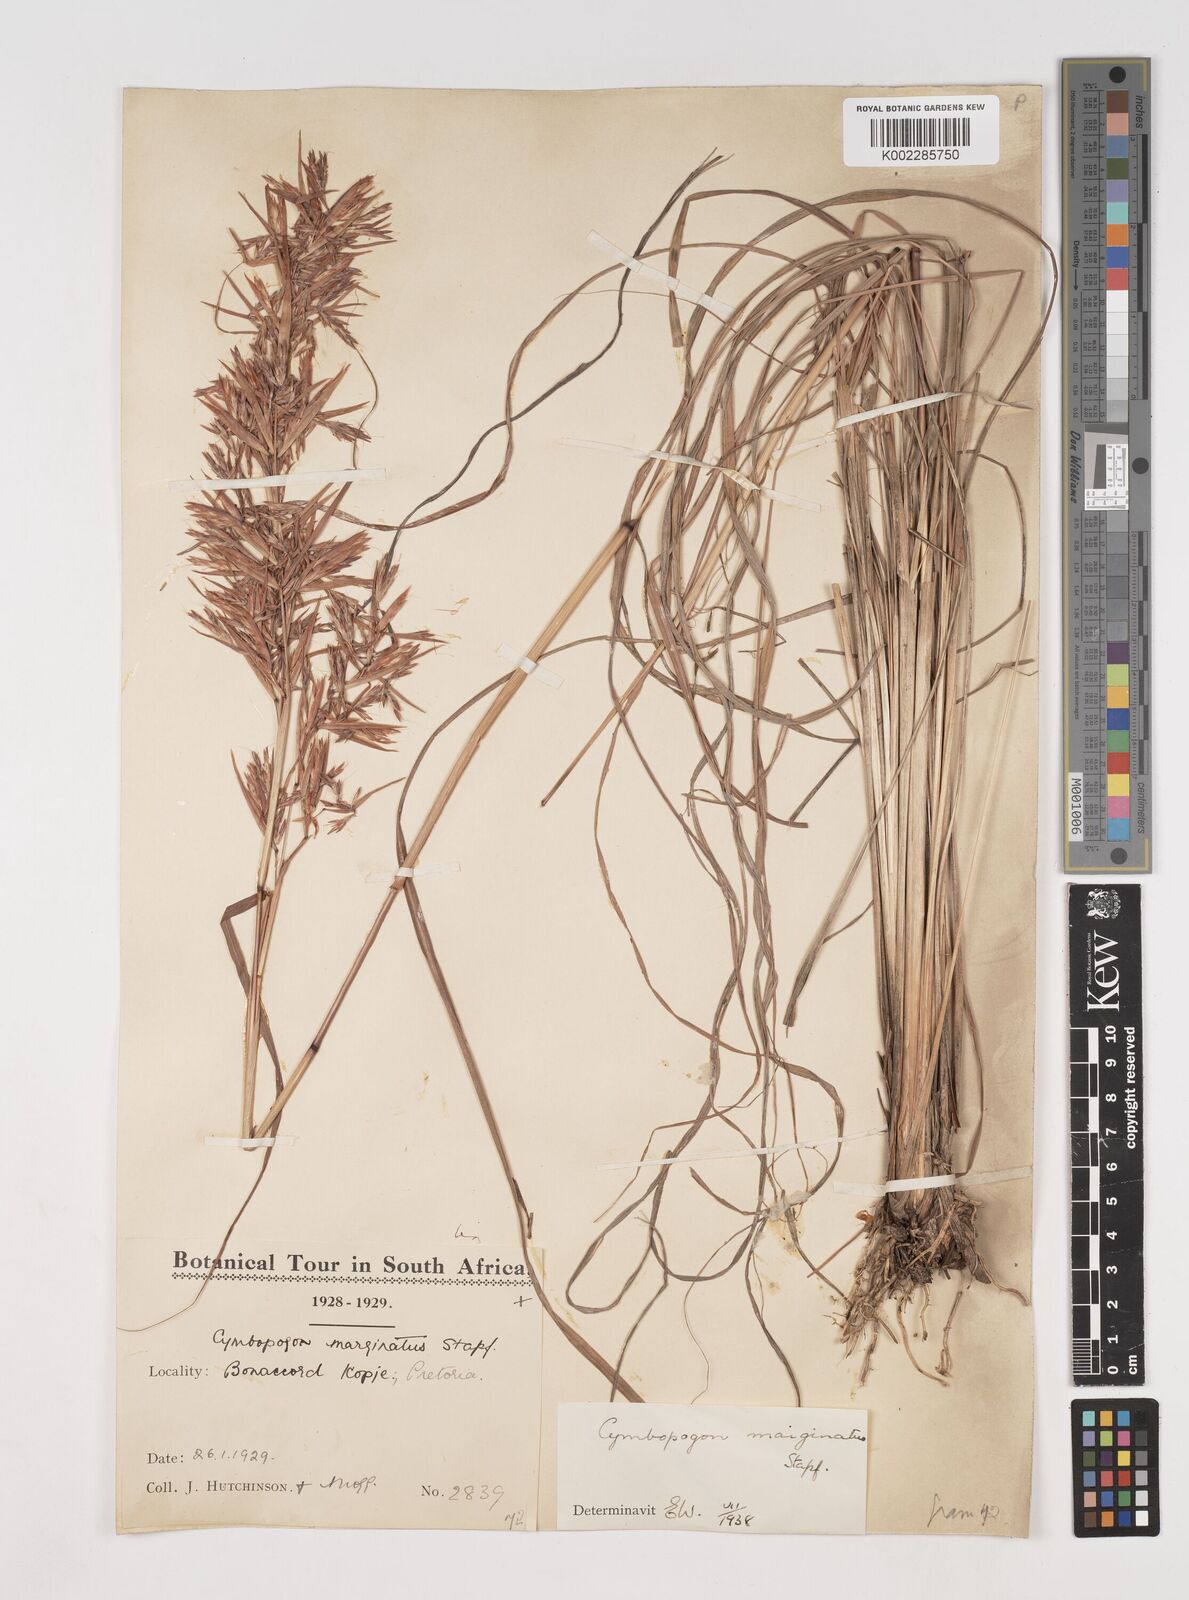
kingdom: Plantae
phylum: Tracheophyta
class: Liliopsida
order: Poales
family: Poaceae
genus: Cymbopogon
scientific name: Cymbopogon nardus
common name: Giant turpentine grass
